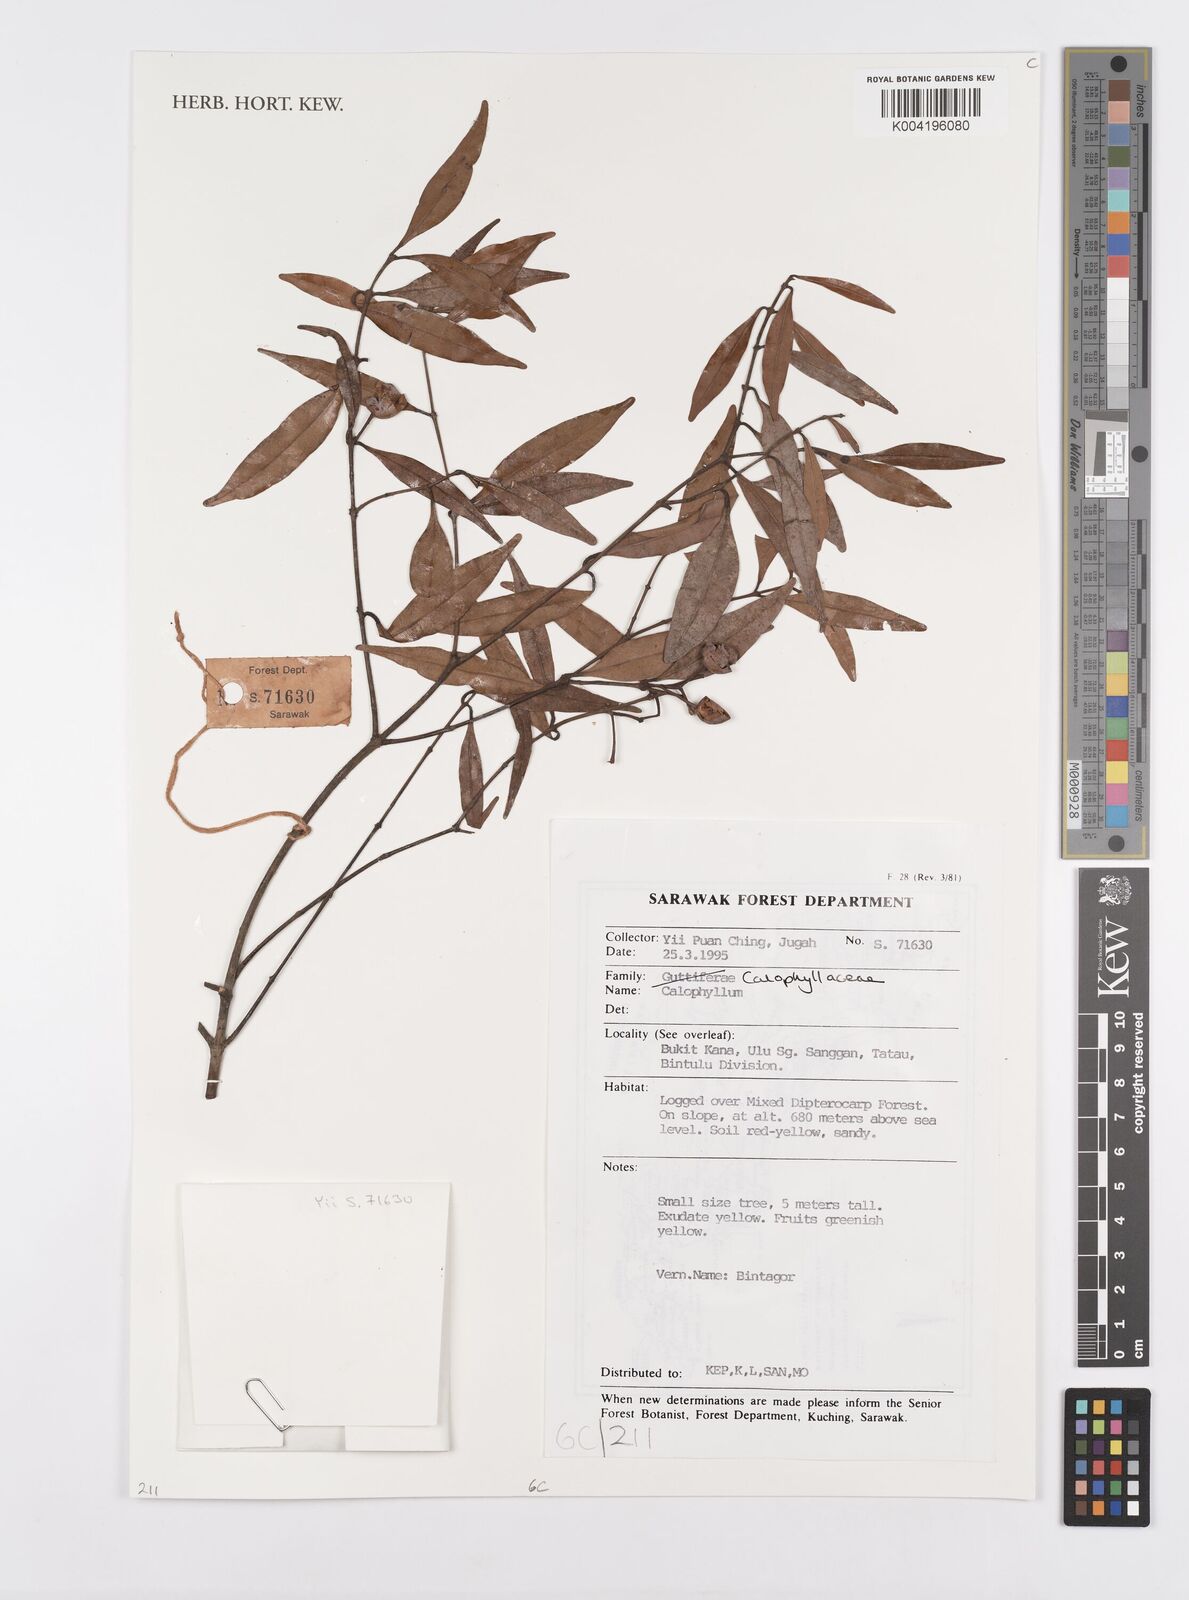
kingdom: Plantae
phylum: Tracheophyta
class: Magnoliopsida
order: Malpighiales
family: Calophyllaceae
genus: Calophyllum
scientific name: Calophyllum
